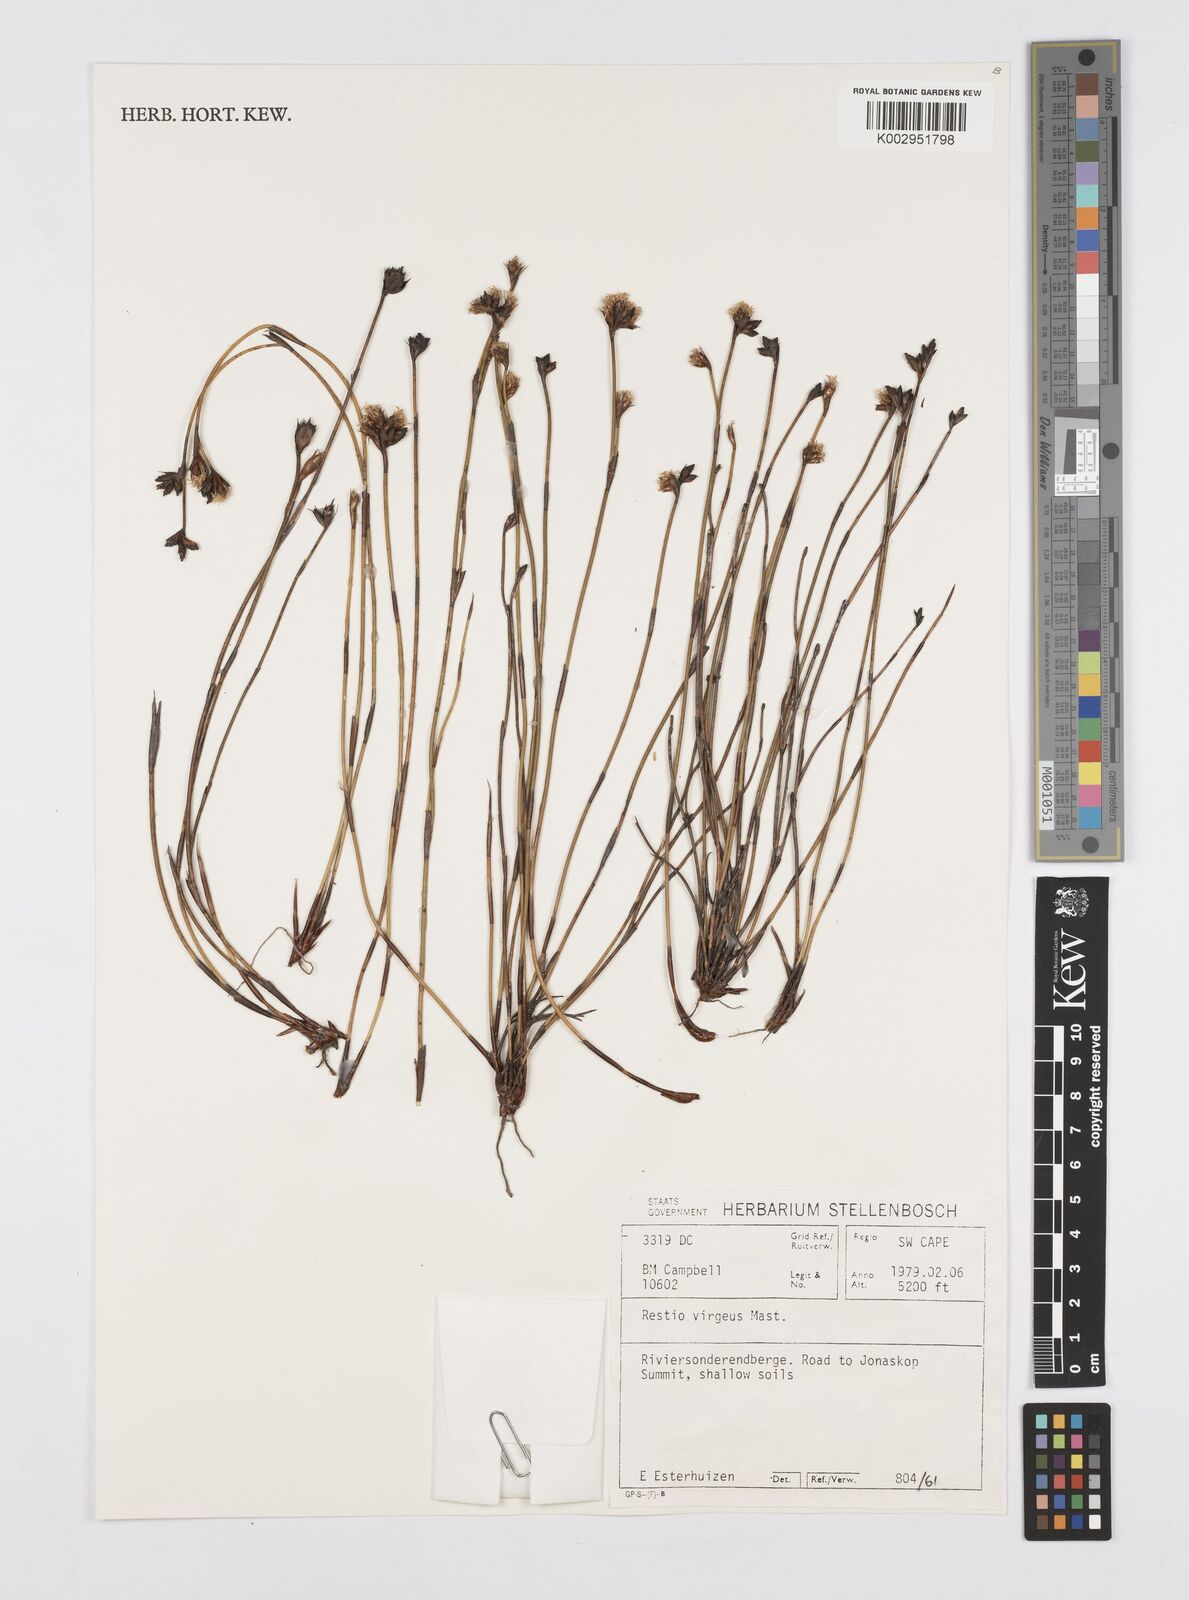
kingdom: Plantae
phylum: Tracheophyta
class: Liliopsida
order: Poales
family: Restionaceae
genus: Restio
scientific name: Restio virgeus
